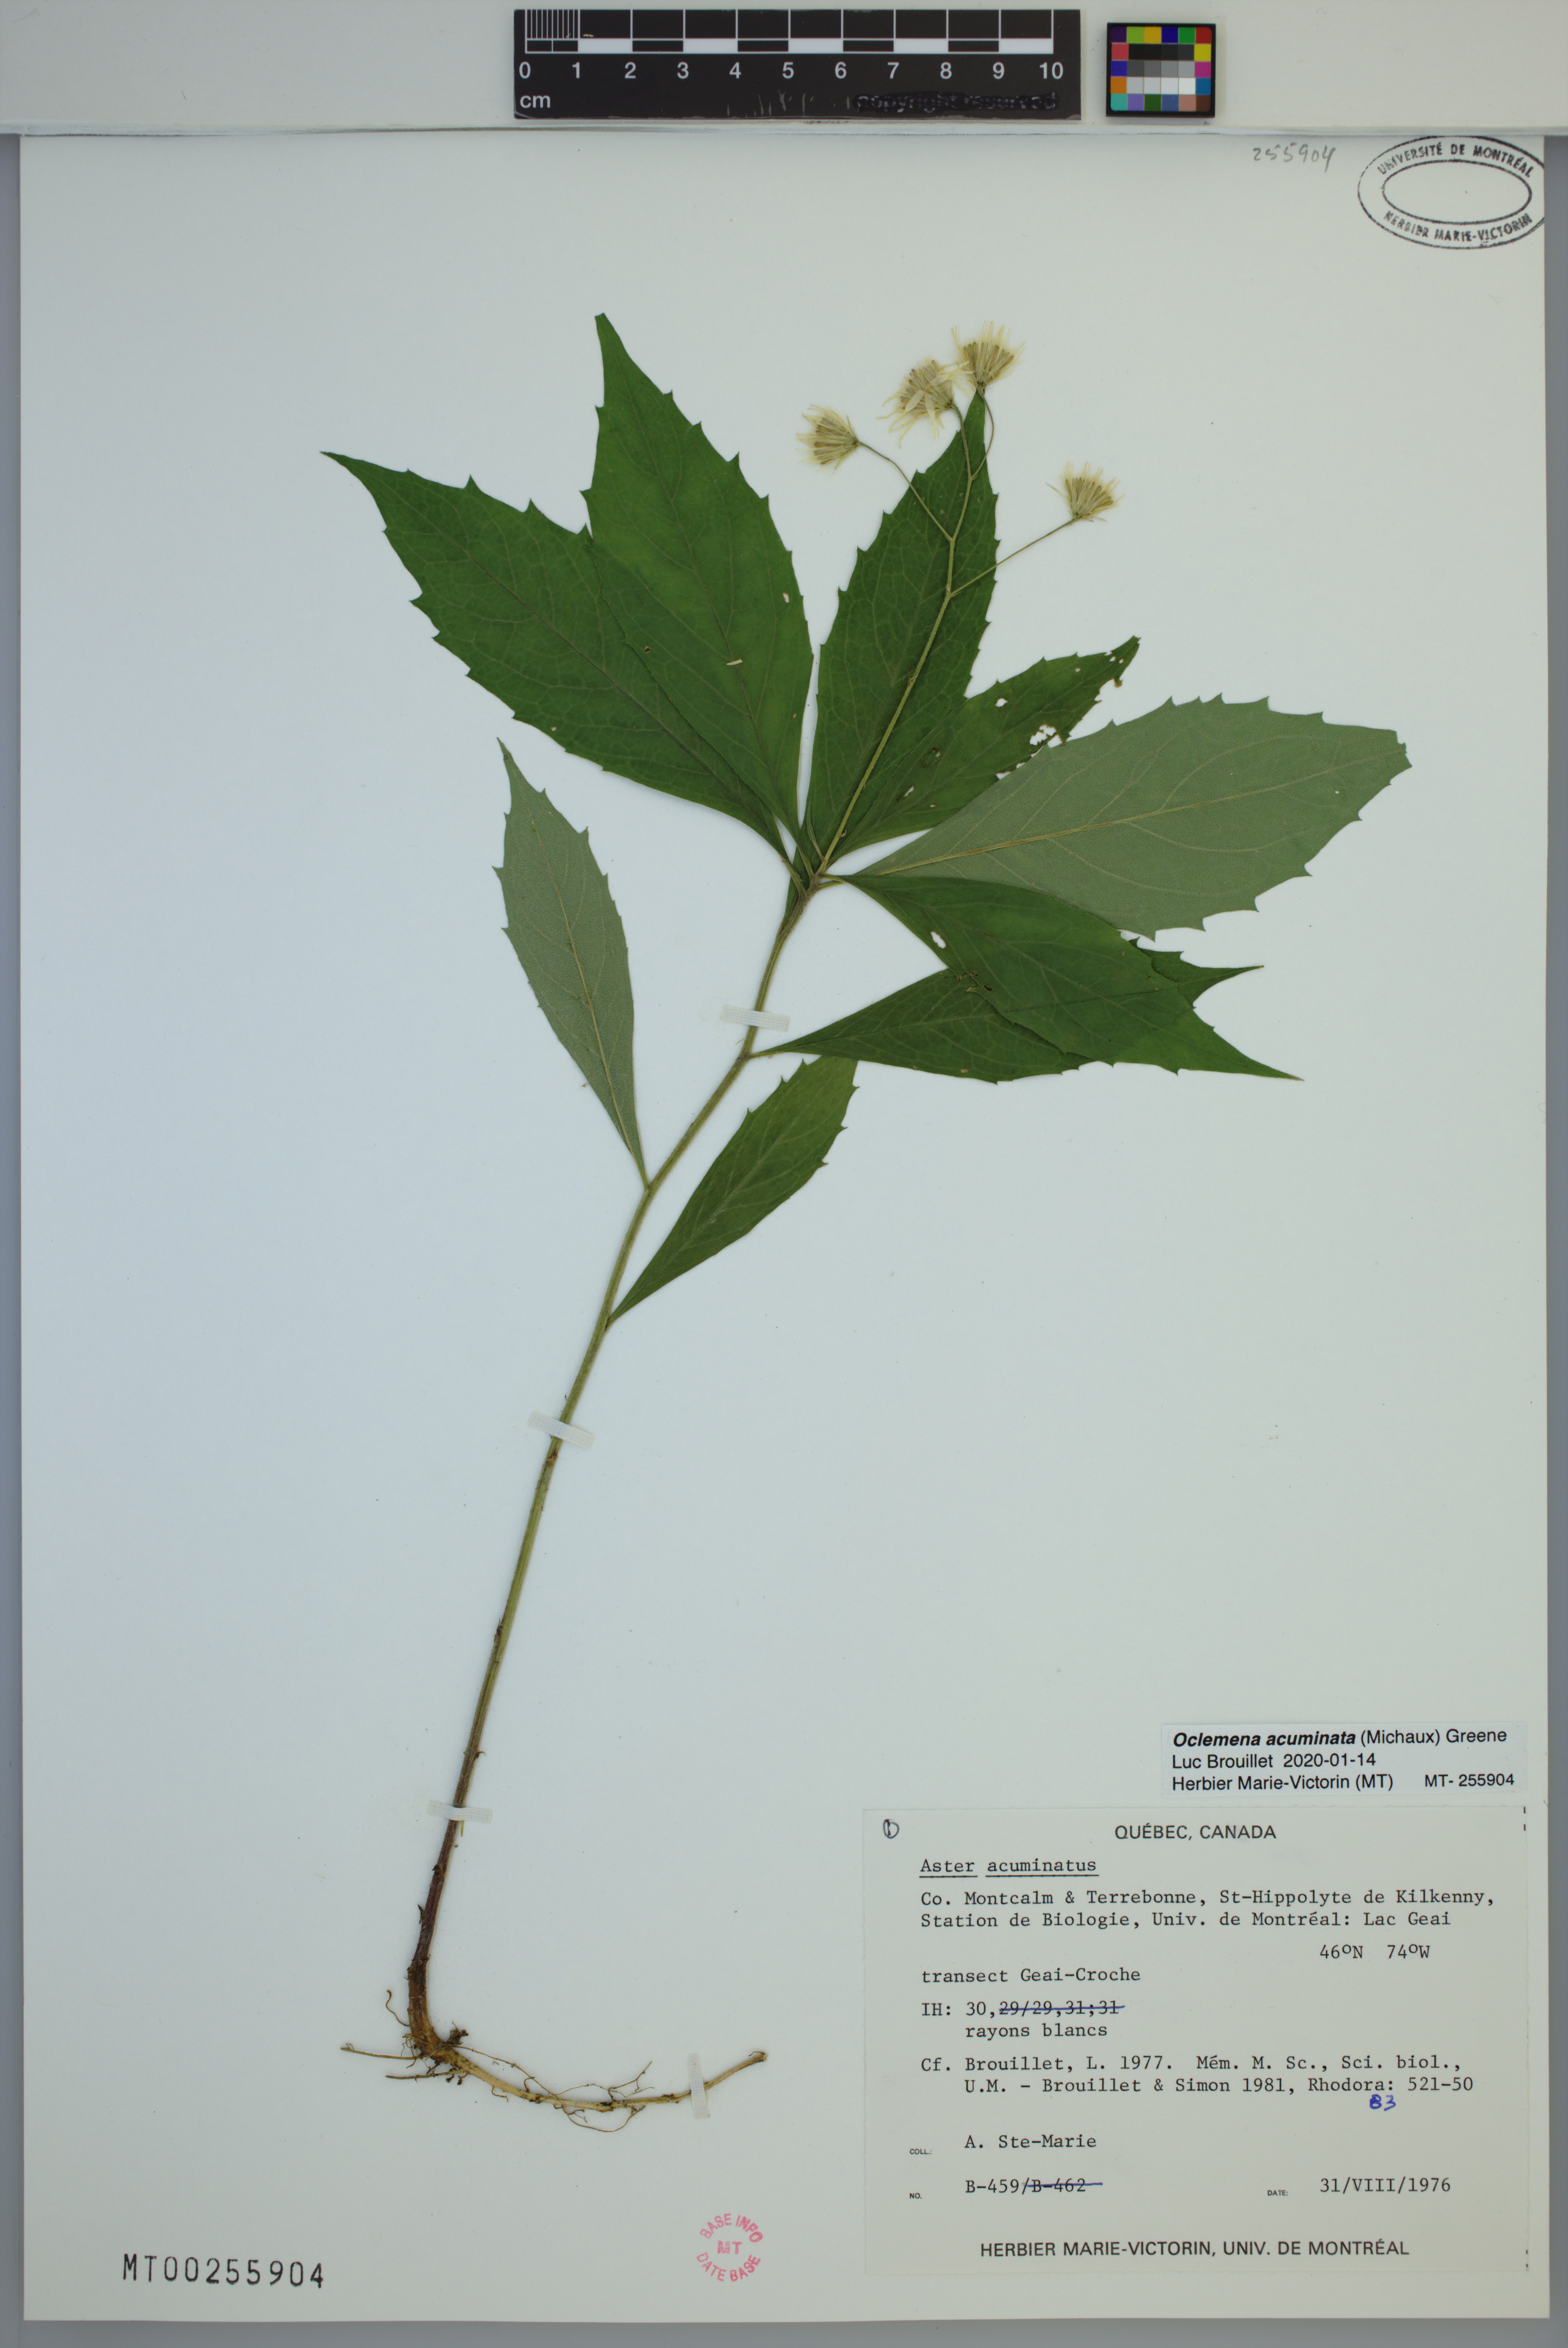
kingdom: Plantae
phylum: Tracheophyta
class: Magnoliopsida
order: Asterales
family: Asteraceae
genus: Oclemena
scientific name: Oclemena acuminata
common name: Mountain aster
